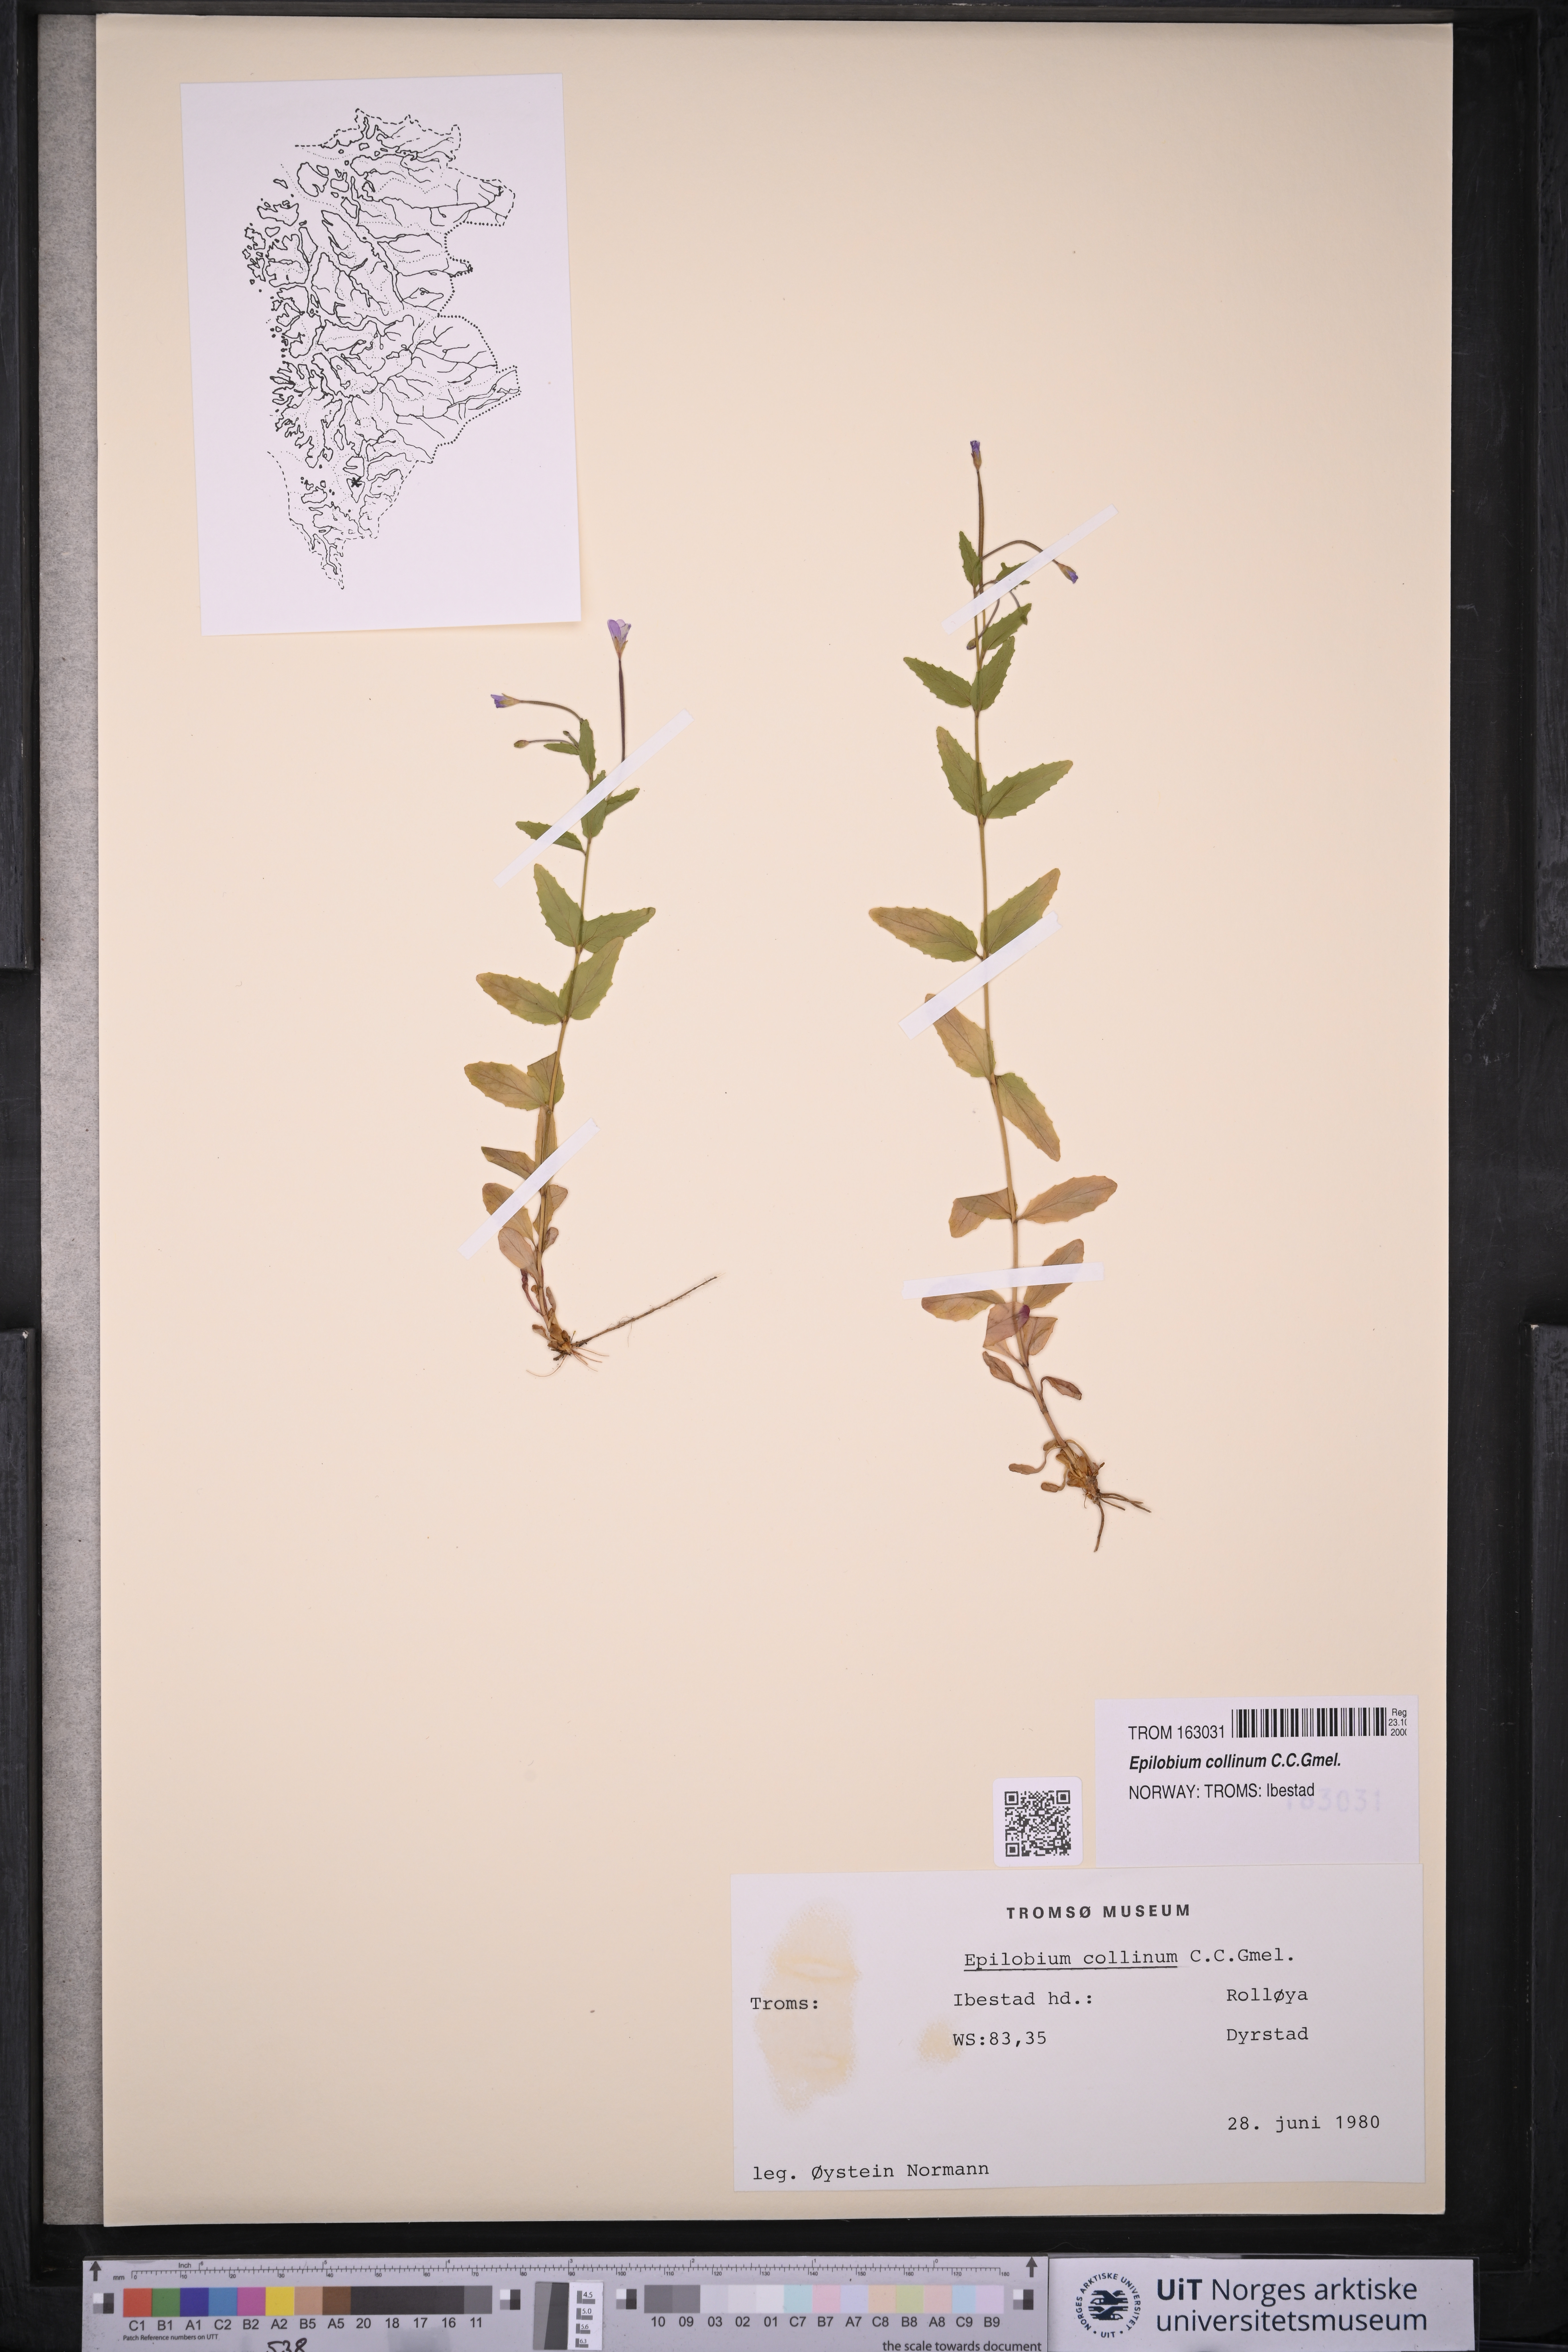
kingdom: Plantae
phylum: Tracheophyta
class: Magnoliopsida
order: Myrtales
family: Onagraceae
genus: Epilobium
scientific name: Epilobium collinum
